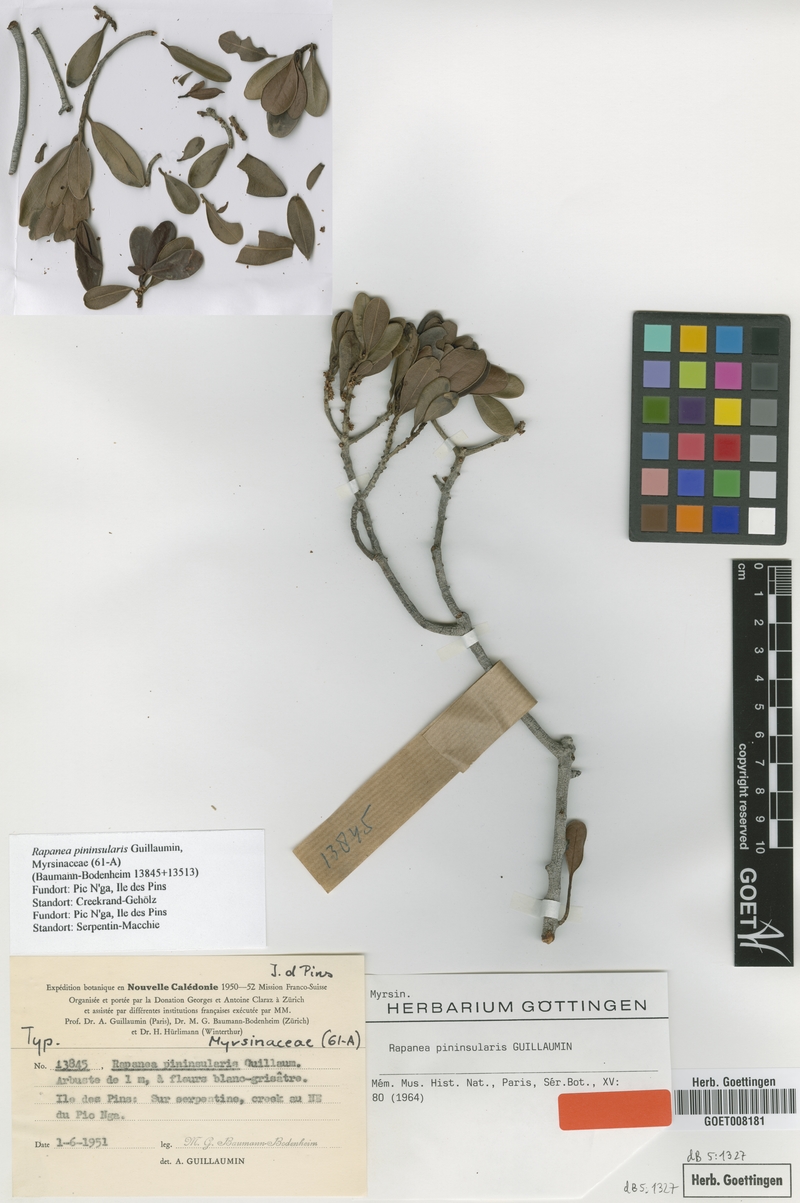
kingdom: Plantae
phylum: Tracheophyta
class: Magnoliopsida
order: Ericales
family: Primulaceae
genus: Myrsine
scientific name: Myrsine novocaledonica
